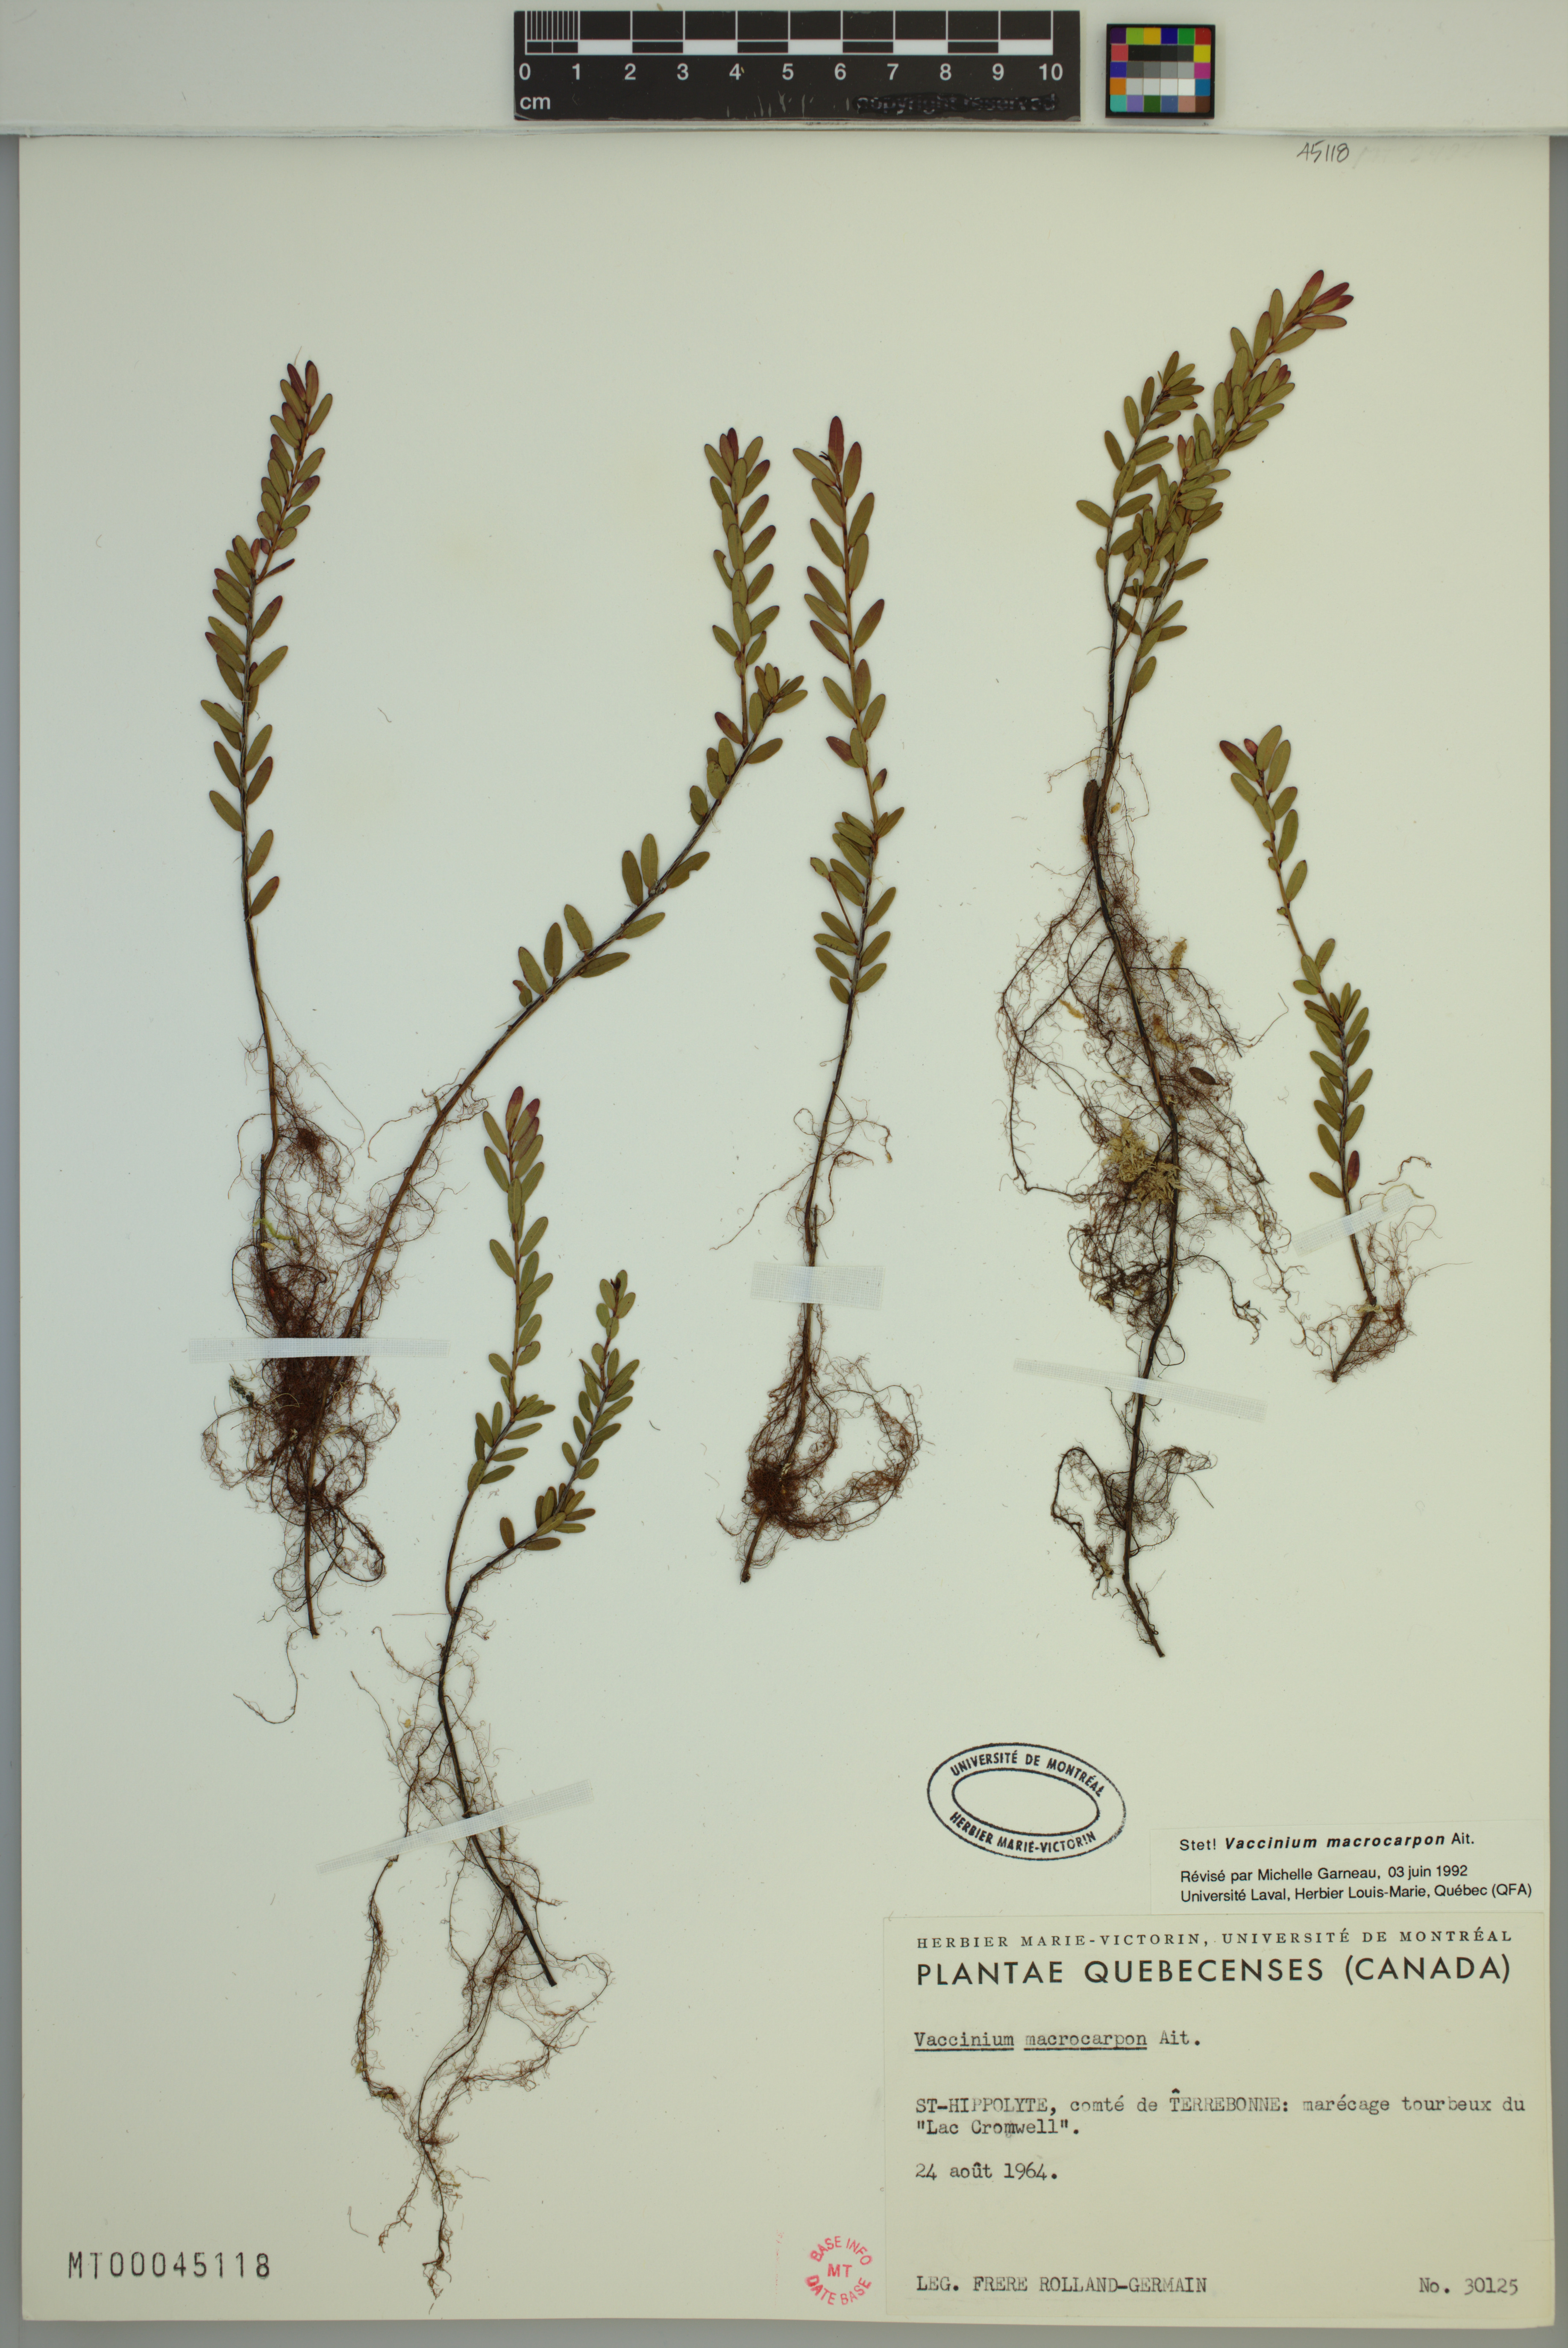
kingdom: Plantae
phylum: Tracheophyta
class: Magnoliopsida
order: Ericales
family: Ericaceae
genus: Vaccinium
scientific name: Vaccinium macrocarpon
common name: American cranberry
